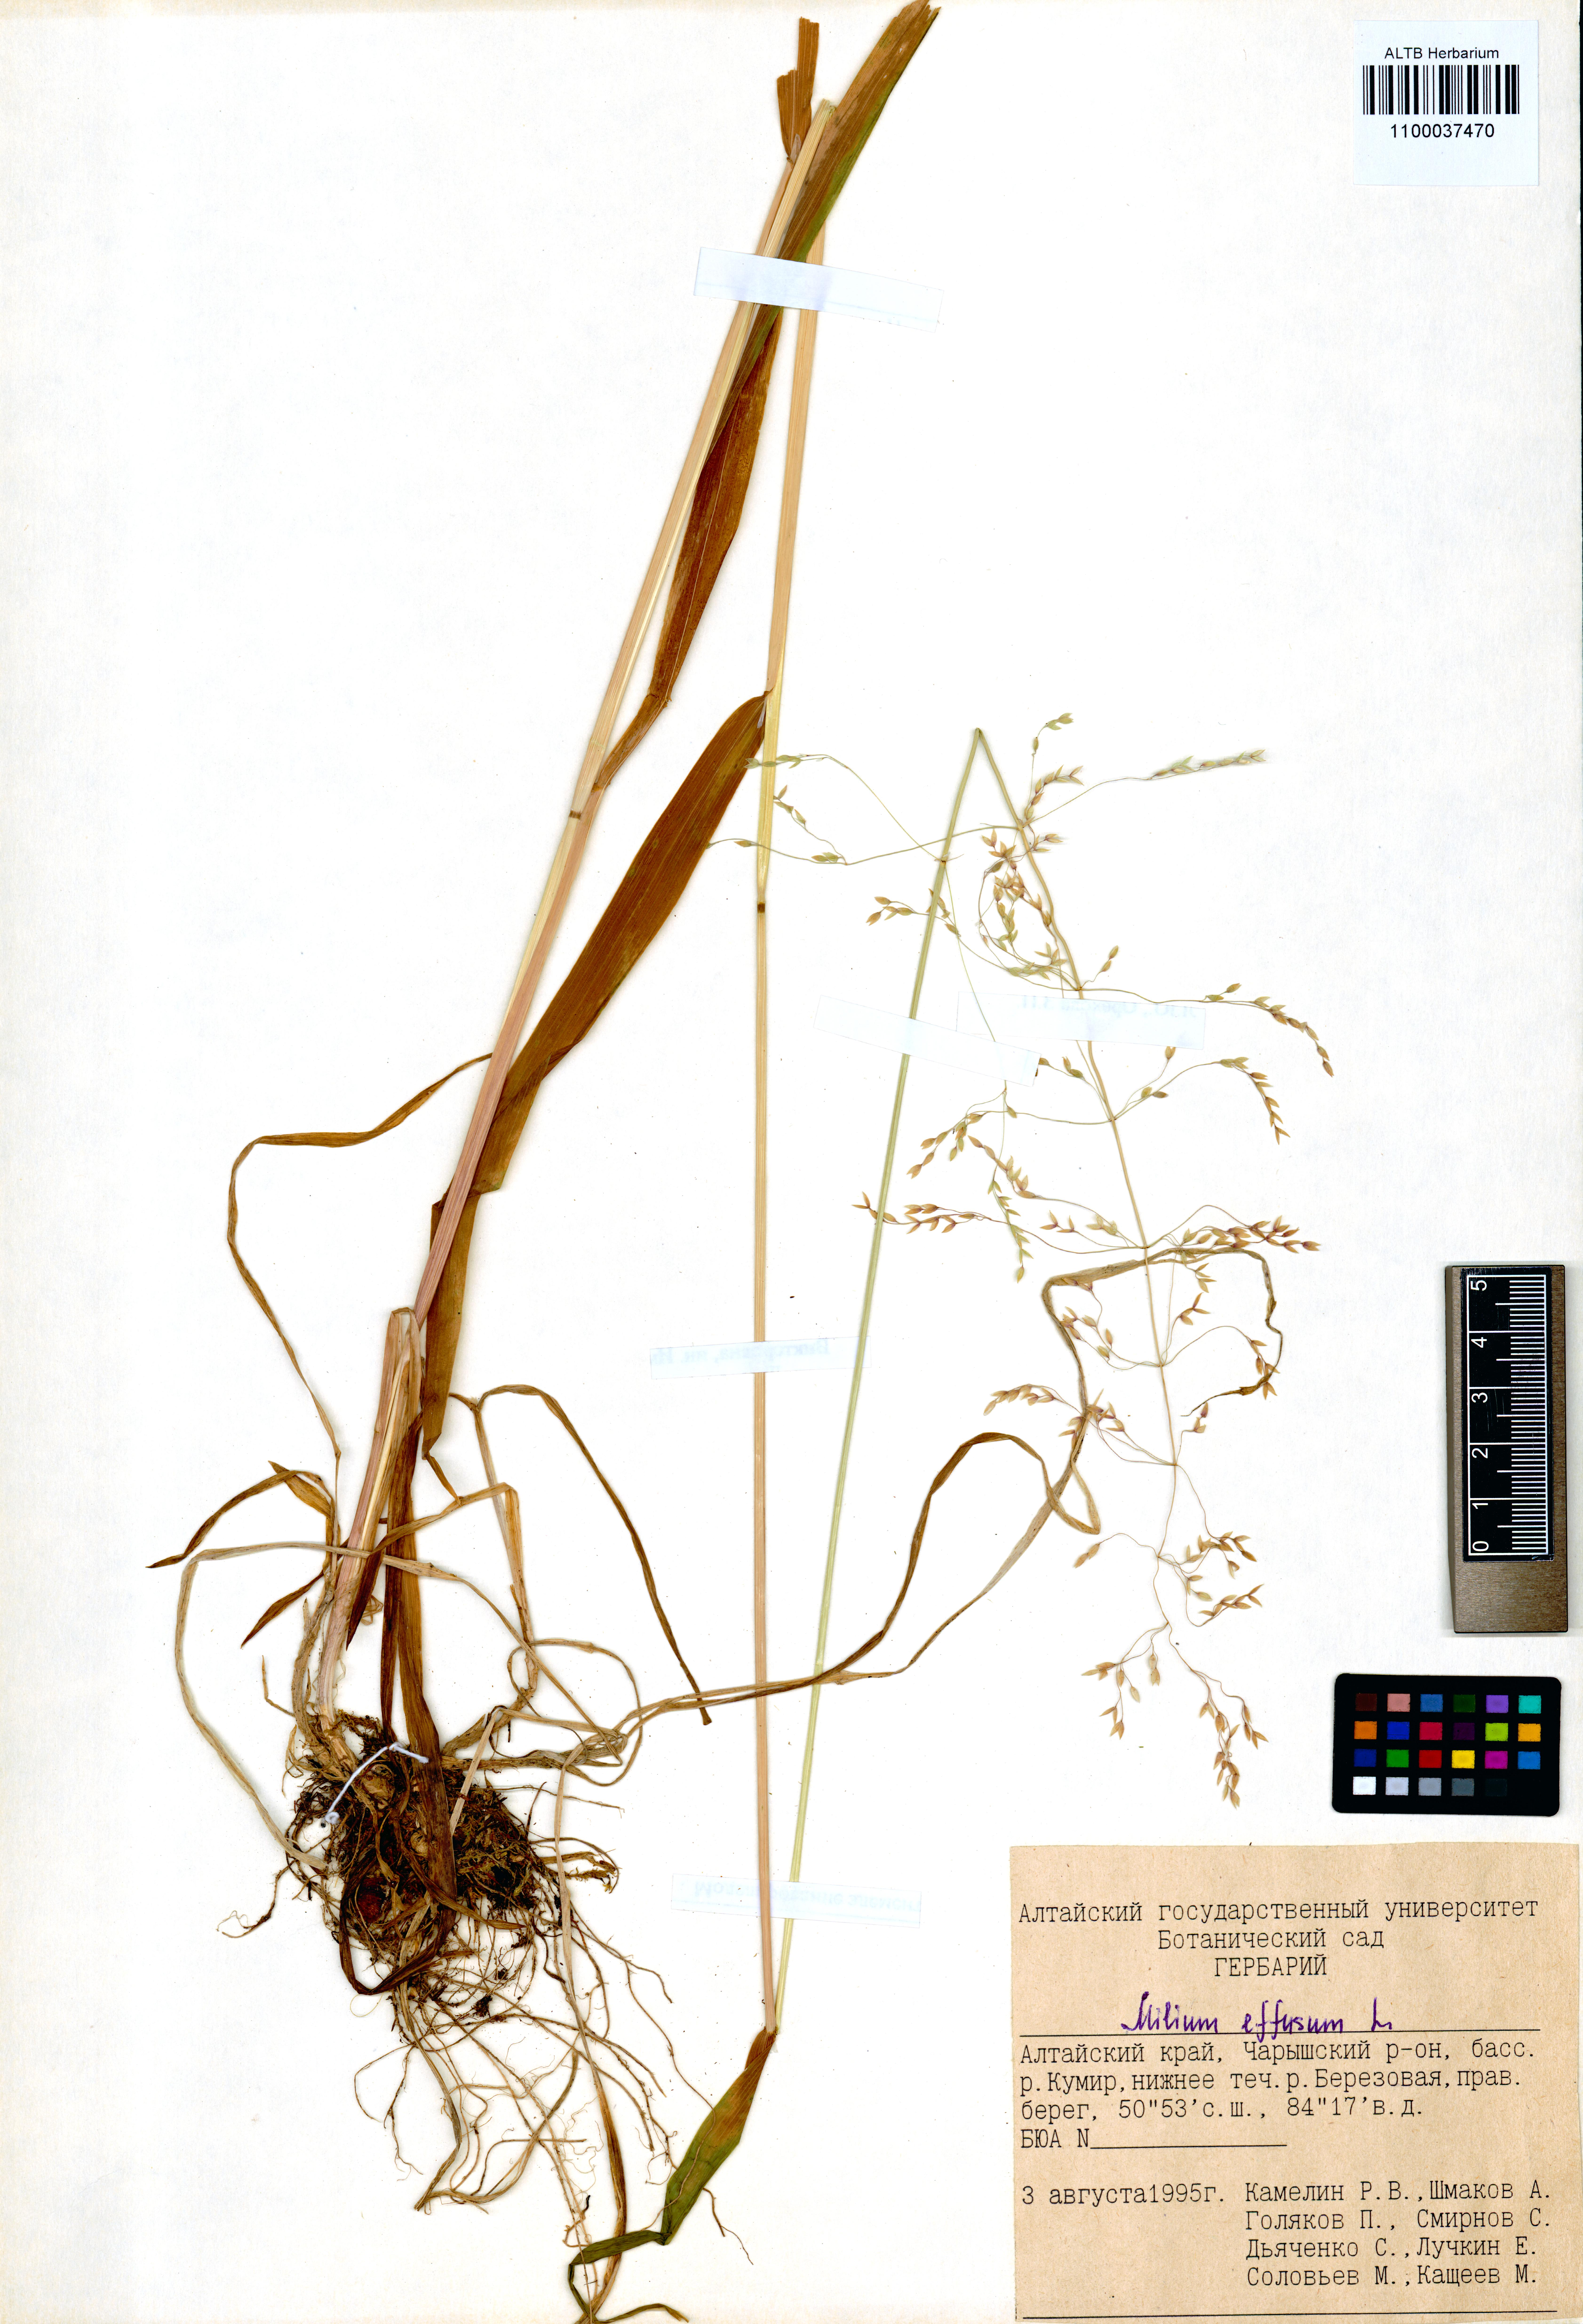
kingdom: Plantae
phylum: Tracheophyta
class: Liliopsida
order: Poales
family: Poaceae
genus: Milium
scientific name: Milium effusum
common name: Wood millet
